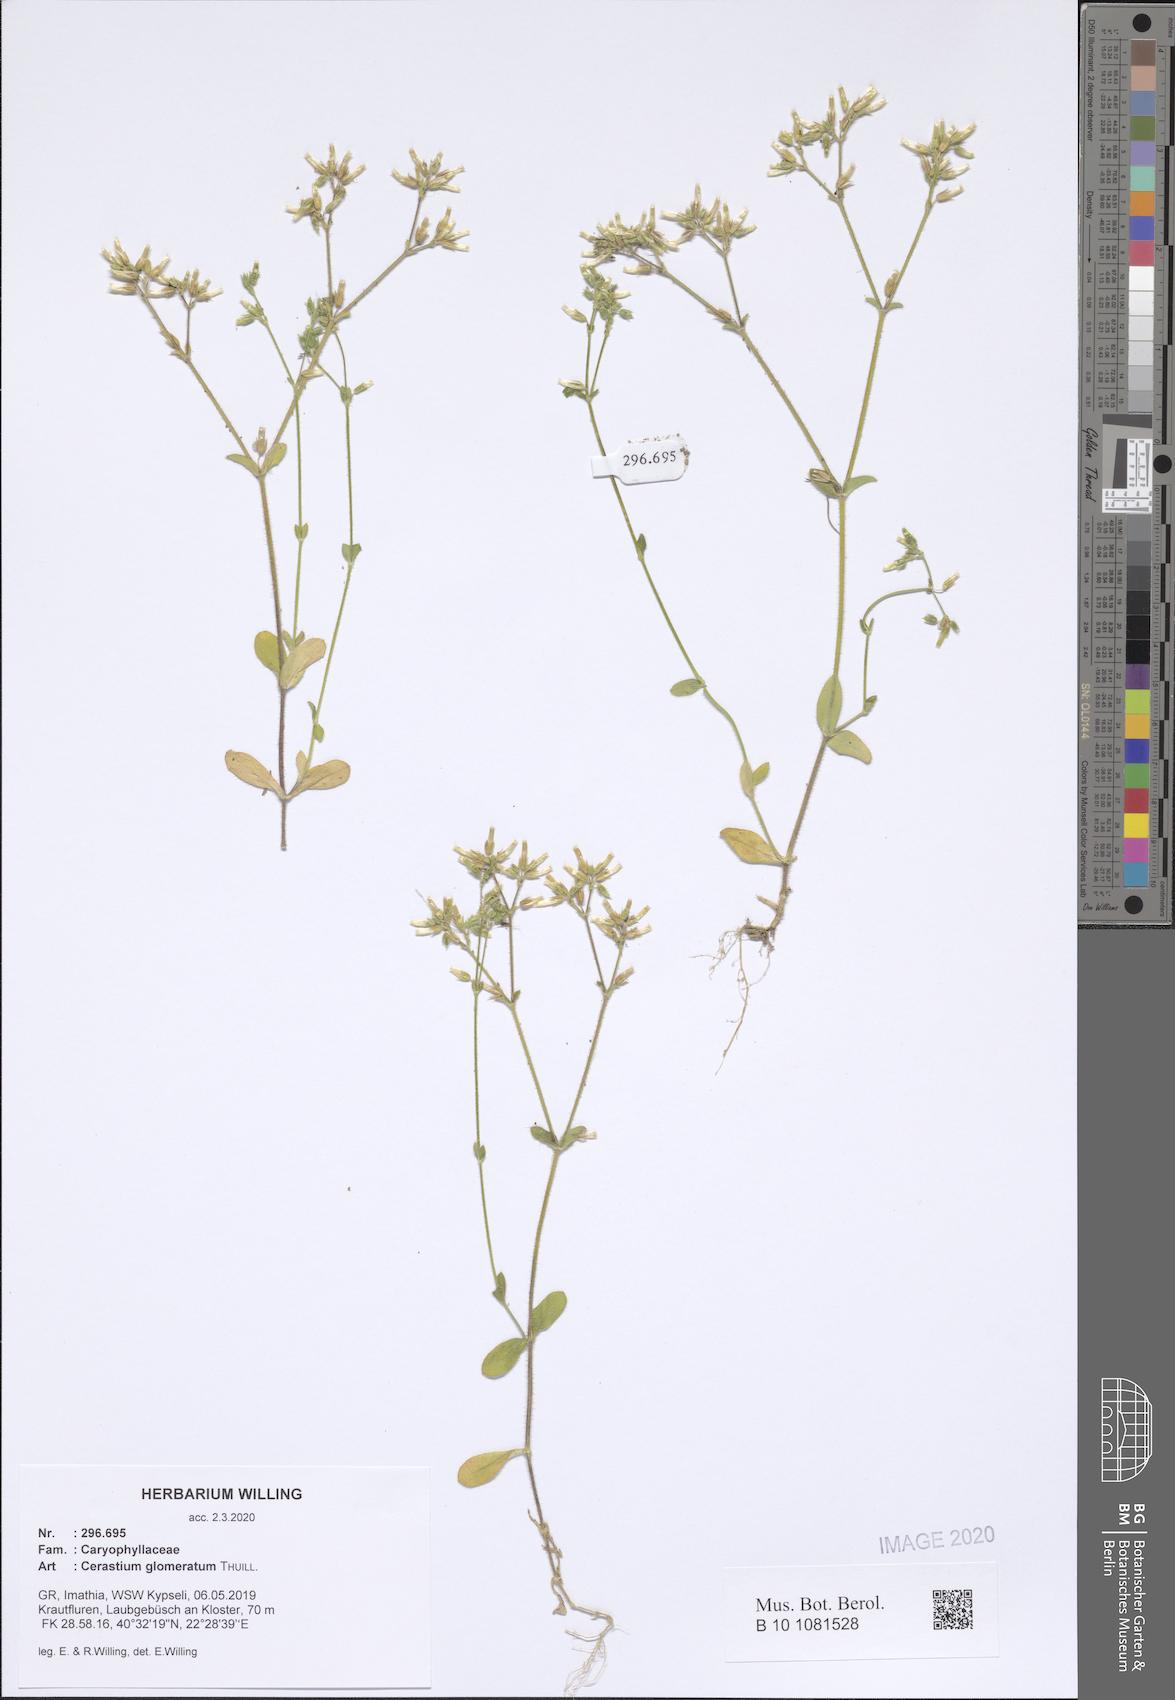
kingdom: Plantae
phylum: Tracheophyta
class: Magnoliopsida
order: Caryophyllales
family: Caryophyllaceae
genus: Cerastium
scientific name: Cerastium glomeratum
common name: Sticky chickweed
